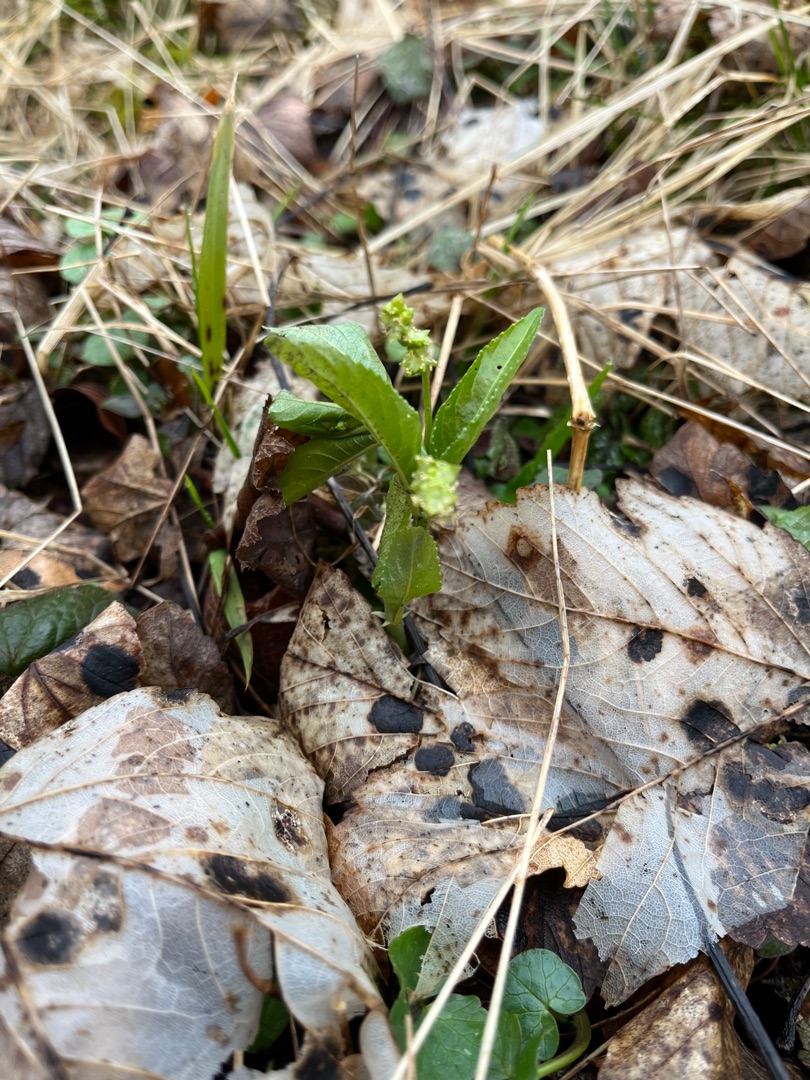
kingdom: Plantae
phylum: Tracheophyta
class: Magnoliopsida
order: Malpighiales
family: Euphorbiaceae
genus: Mercurialis
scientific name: Mercurialis perennis
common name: Almindelig bingelurt
